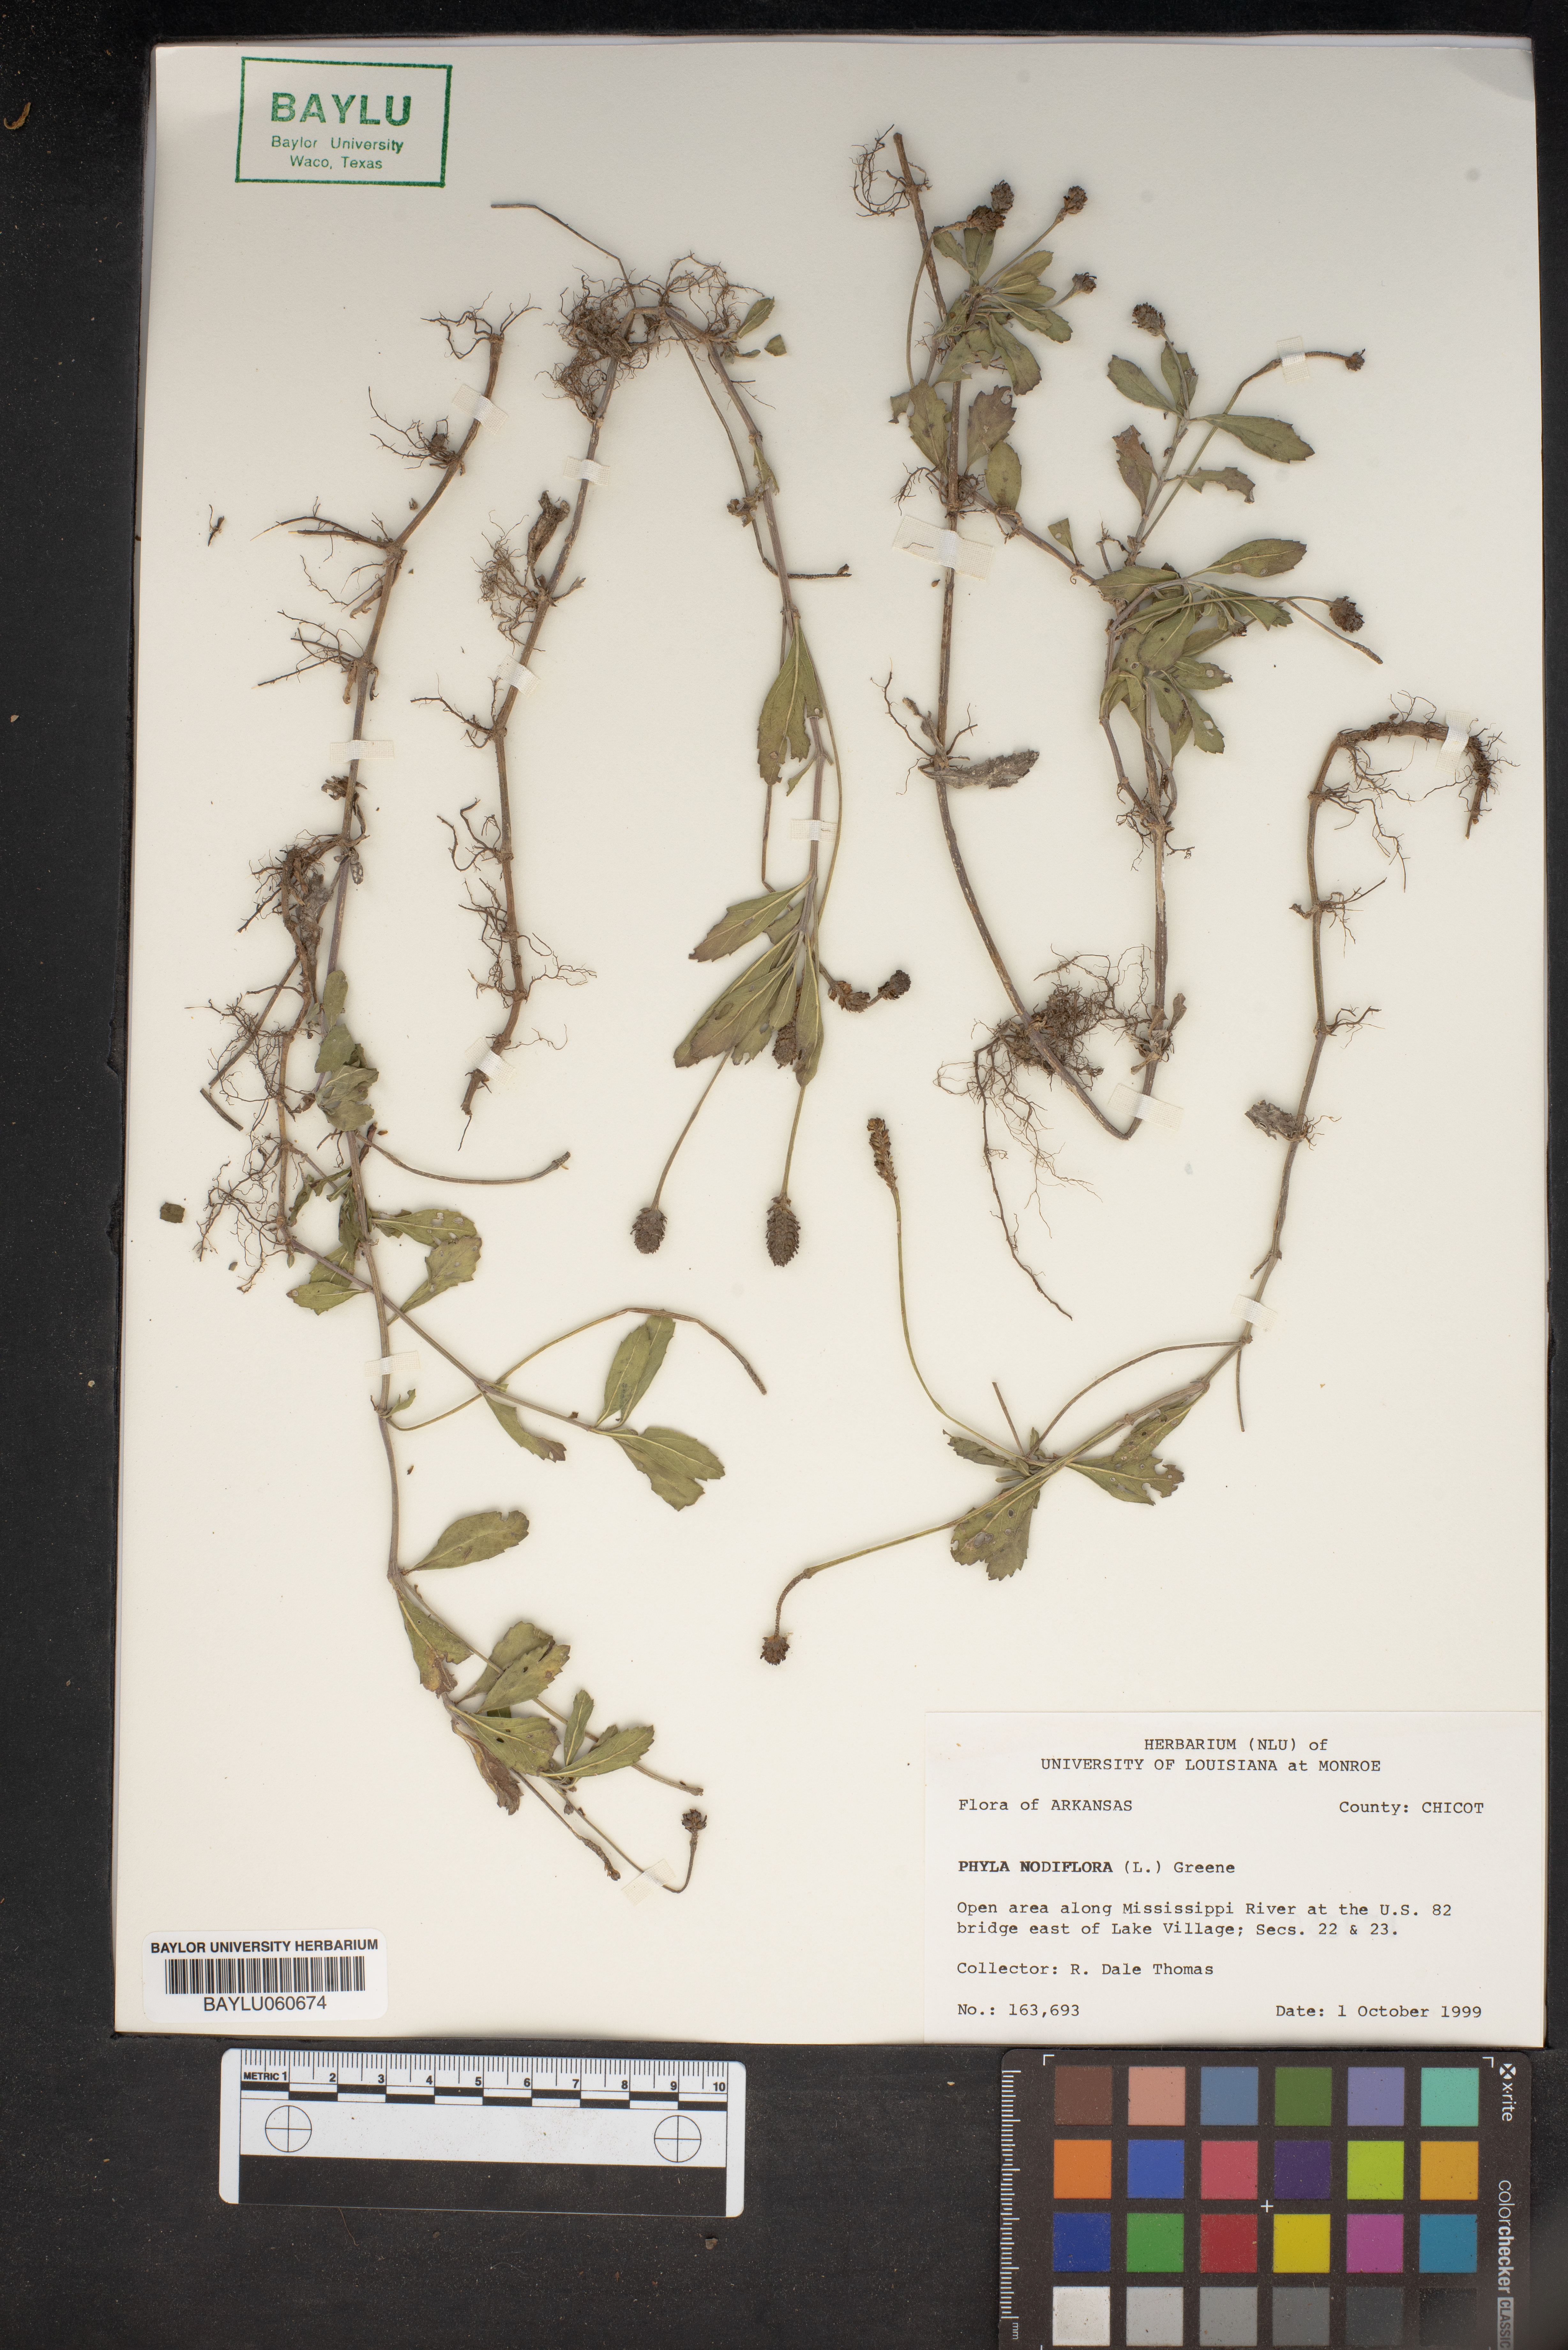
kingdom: Plantae
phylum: Tracheophyta
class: Magnoliopsida
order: Lamiales
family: Verbenaceae
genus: Phyla
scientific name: Phyla nodiflora
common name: Frogfruit
